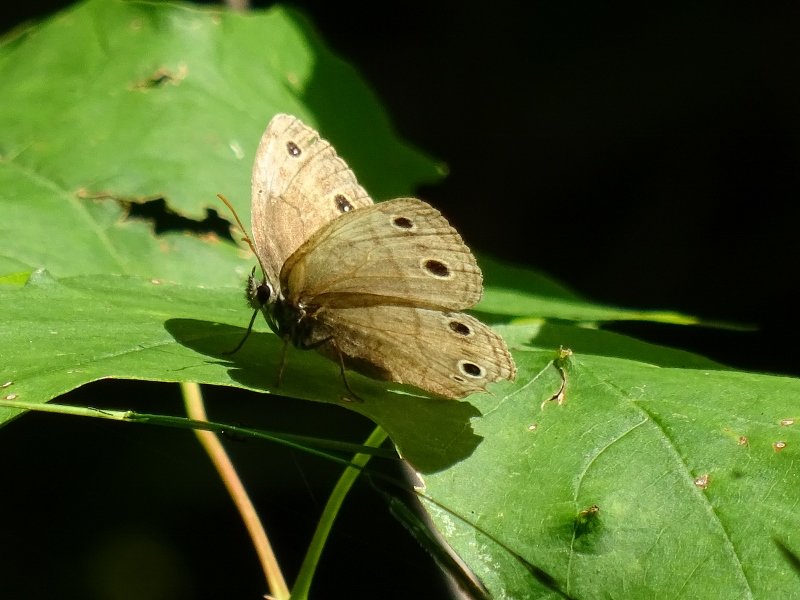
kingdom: Animalia
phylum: Arthropoda
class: Insecta
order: Lepidoptera
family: Nymphalidae
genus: Euptychia
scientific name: Euptychia cymela
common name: Little Wood Satyr
